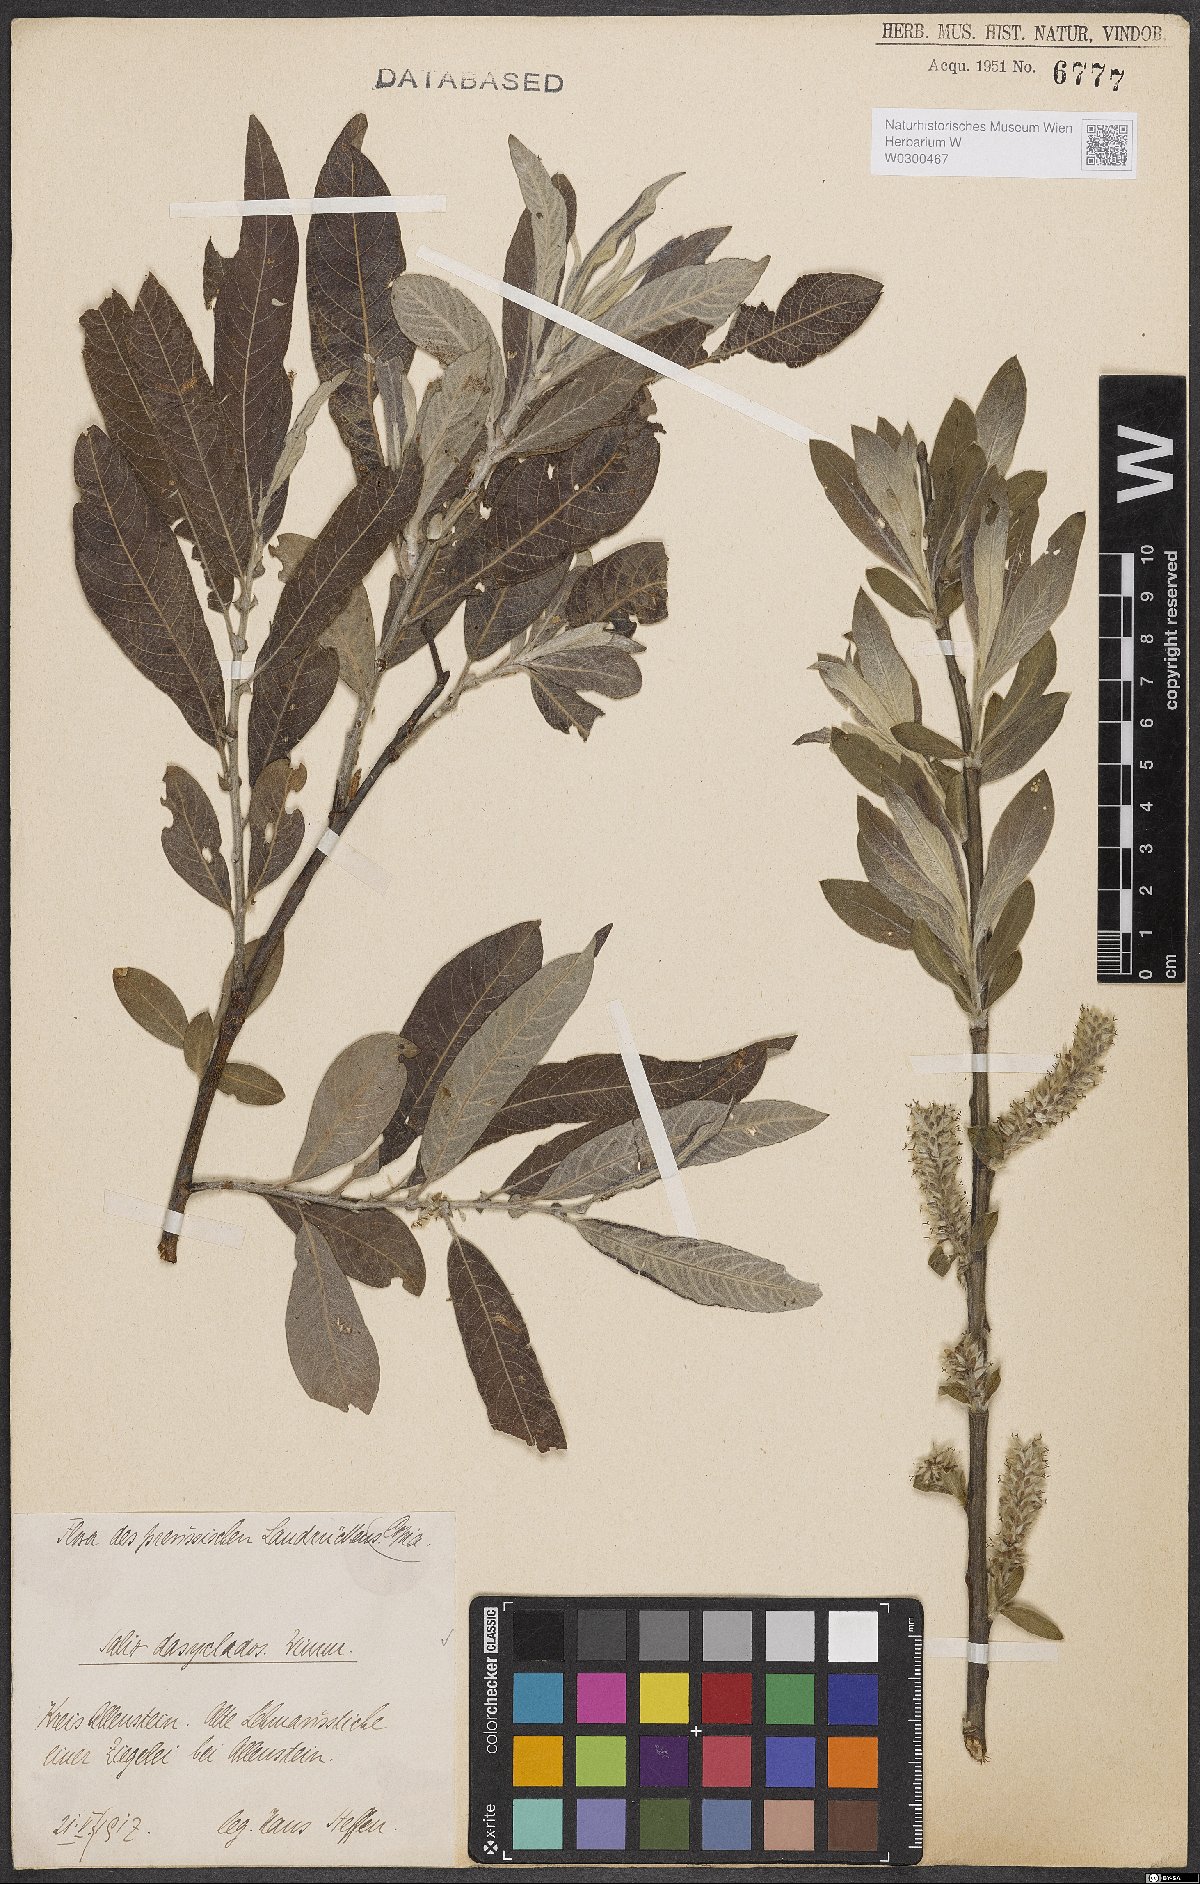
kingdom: Plantae
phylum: Tracheophyta
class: Magnoliopsida
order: Malpighiales
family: Salicaceae
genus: Salix
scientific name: Salix gmelinii
